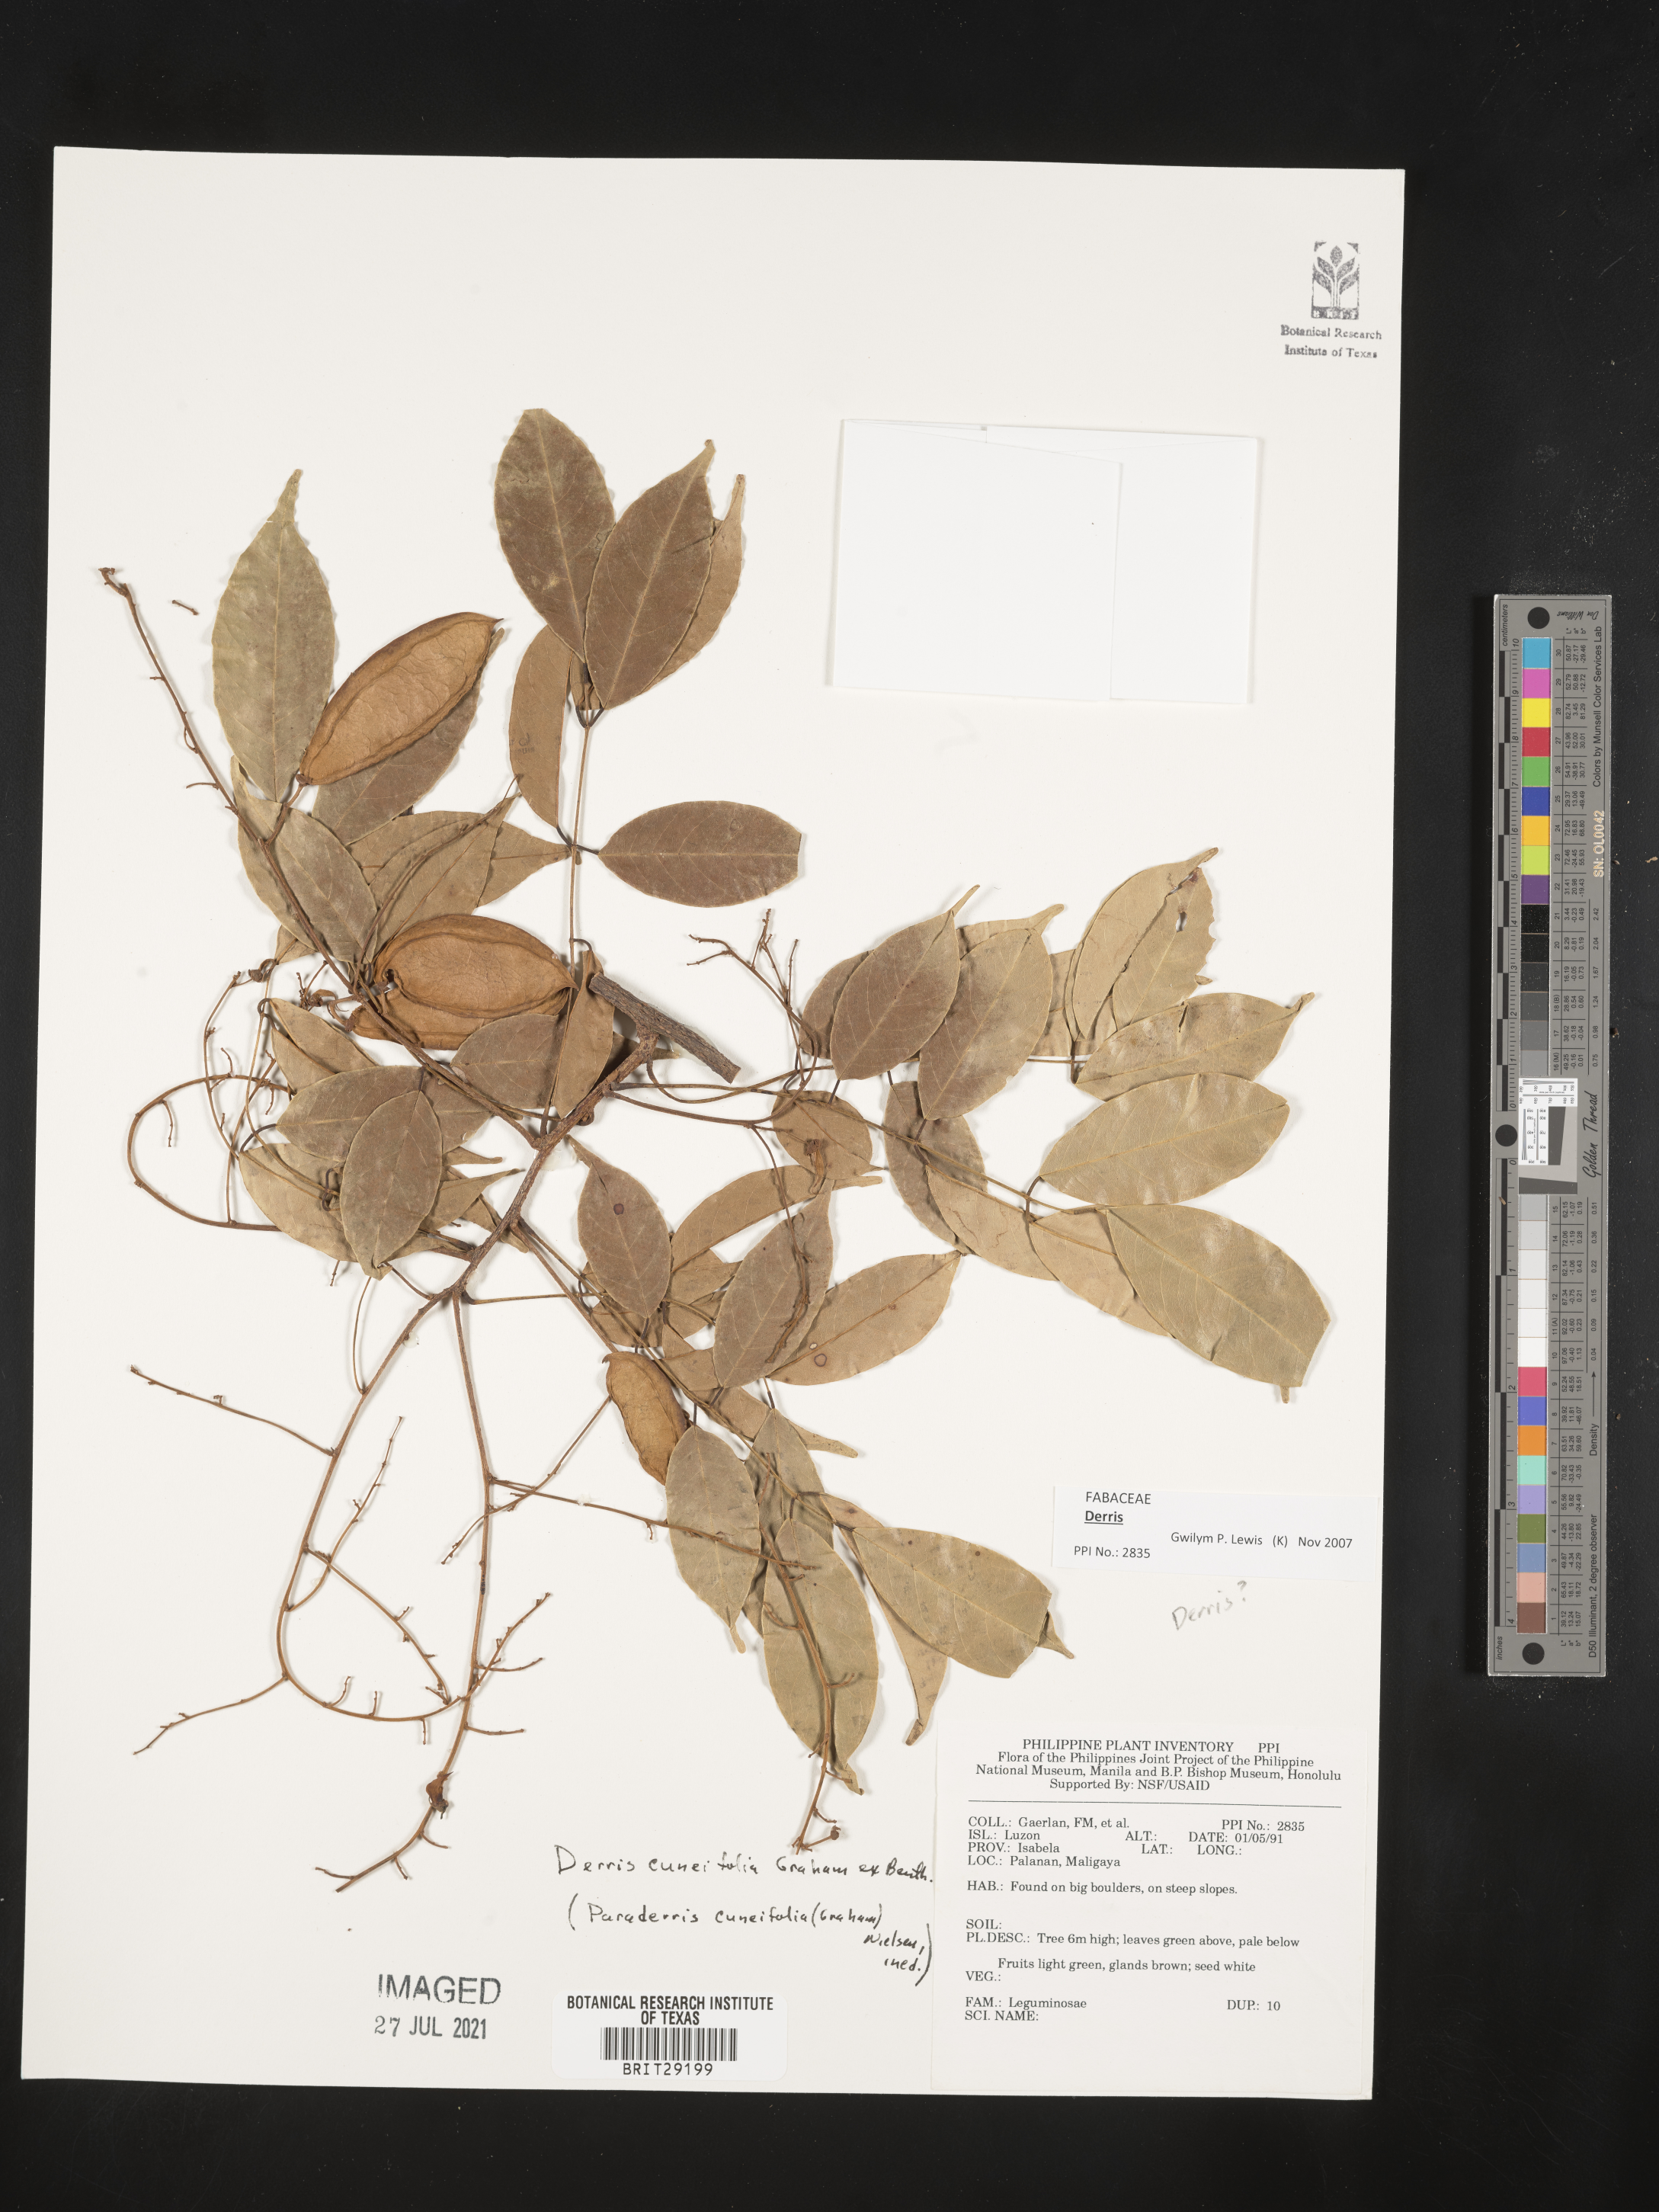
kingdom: Plantae
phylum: Tracheophyta
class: Magnoliopsida
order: Fabales
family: Fabaceae
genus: Derris
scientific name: Derris cuneifolia
